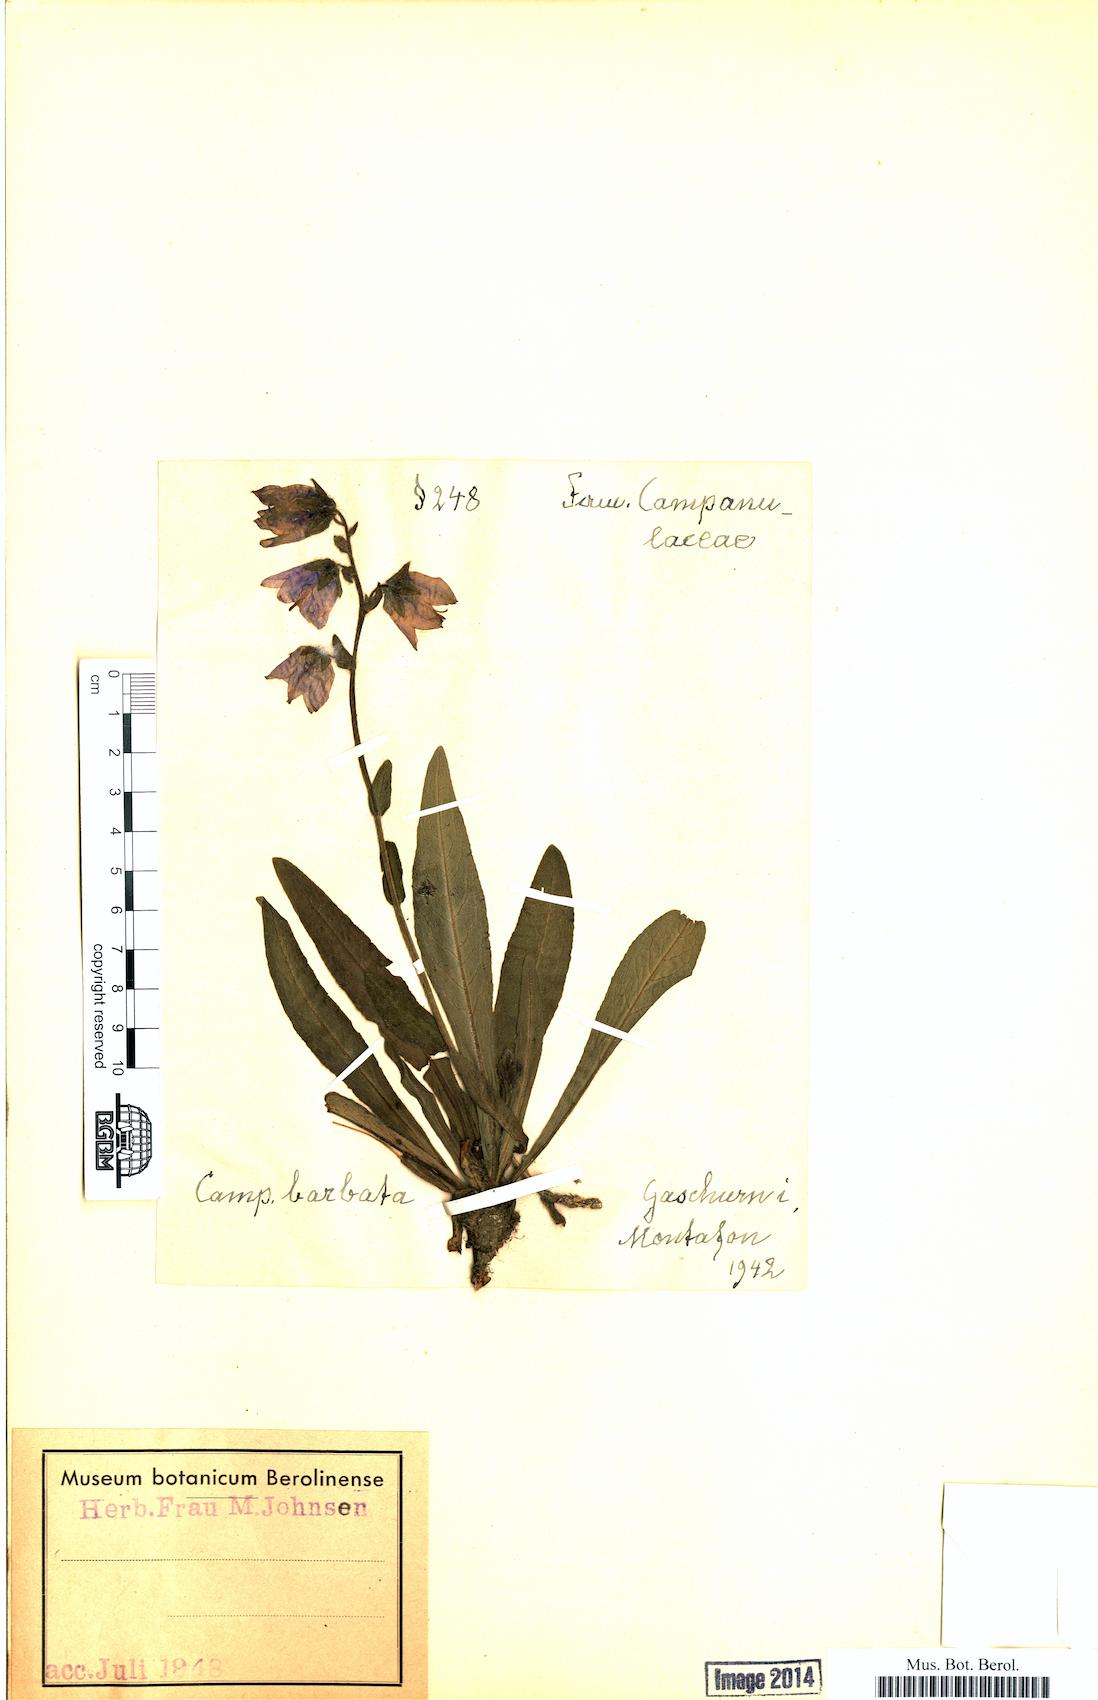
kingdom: Plantae
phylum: Tracheophyta
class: Magnoliopsida
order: Asterales
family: Campanulaceae
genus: Campanula
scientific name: Campanula barbata
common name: Bearded bellflower
